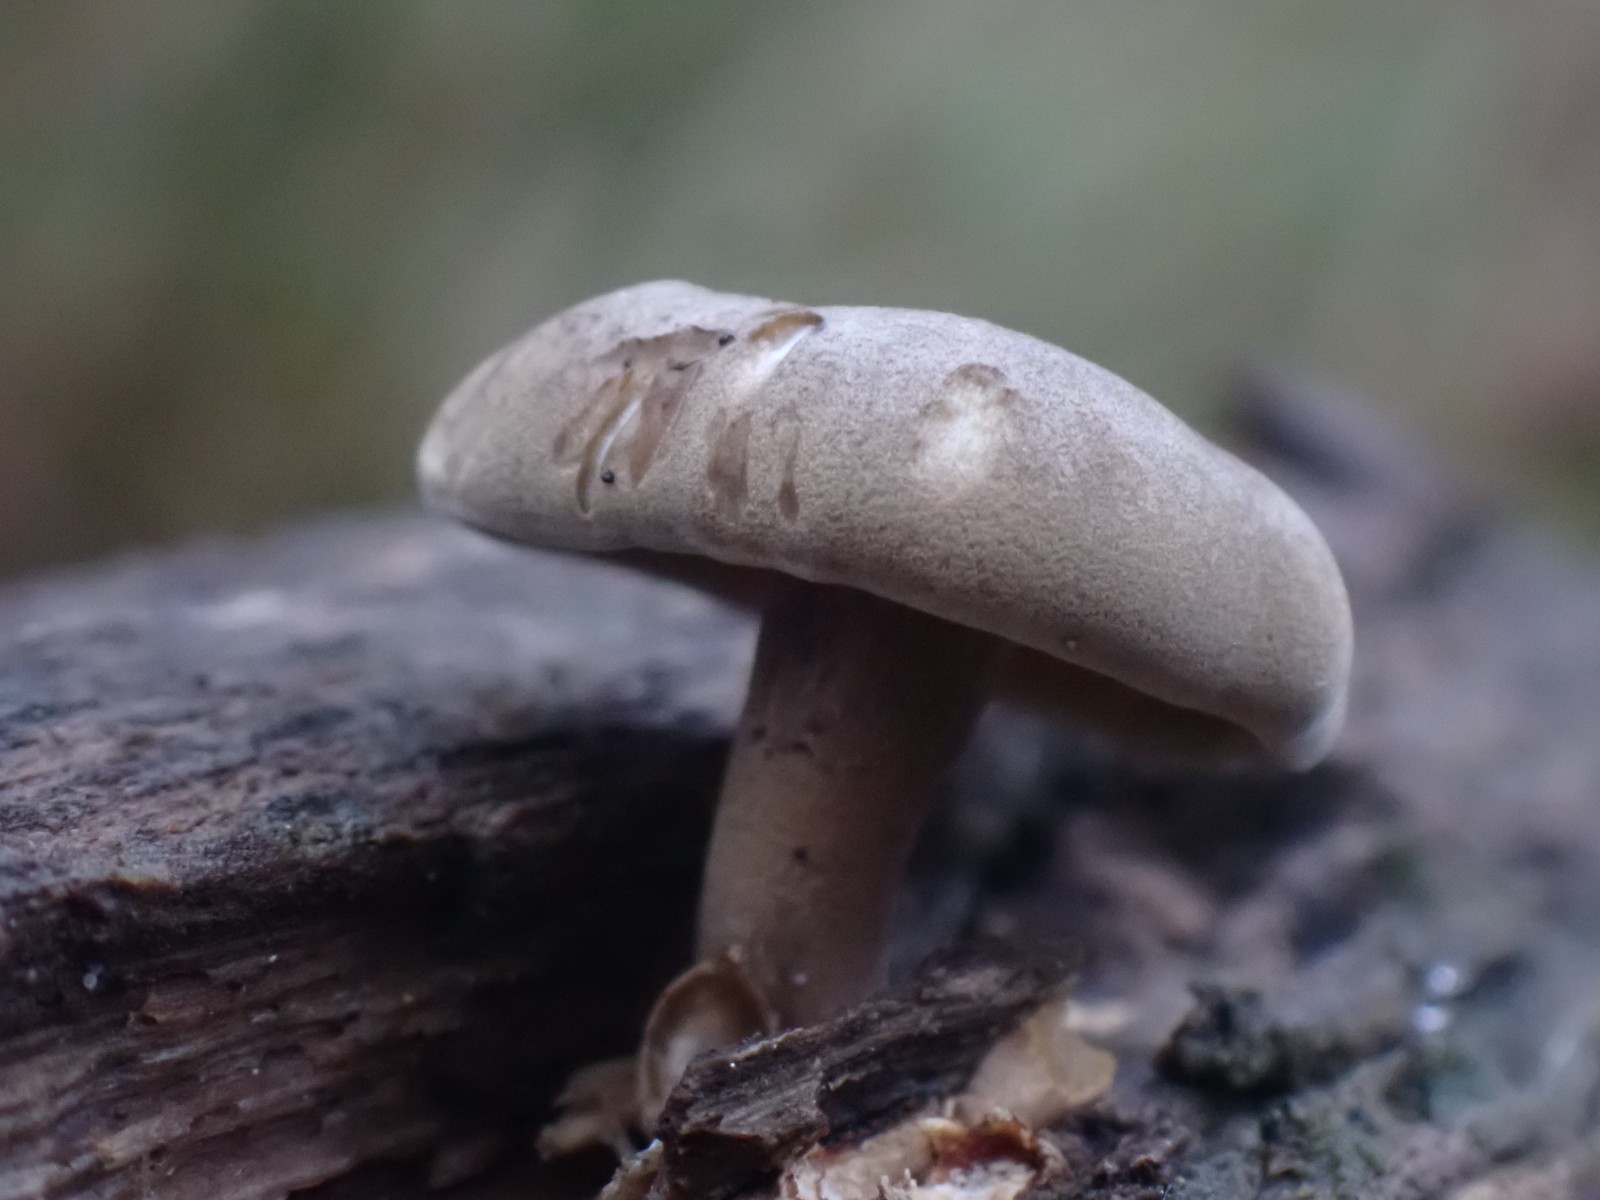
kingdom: Fungi
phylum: Basidiomycota
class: Agaricomycetes
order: Polyporales
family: Polyporaceae
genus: Lentinus
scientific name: Lentinus brumalis
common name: vinter-stilkporesvamp
